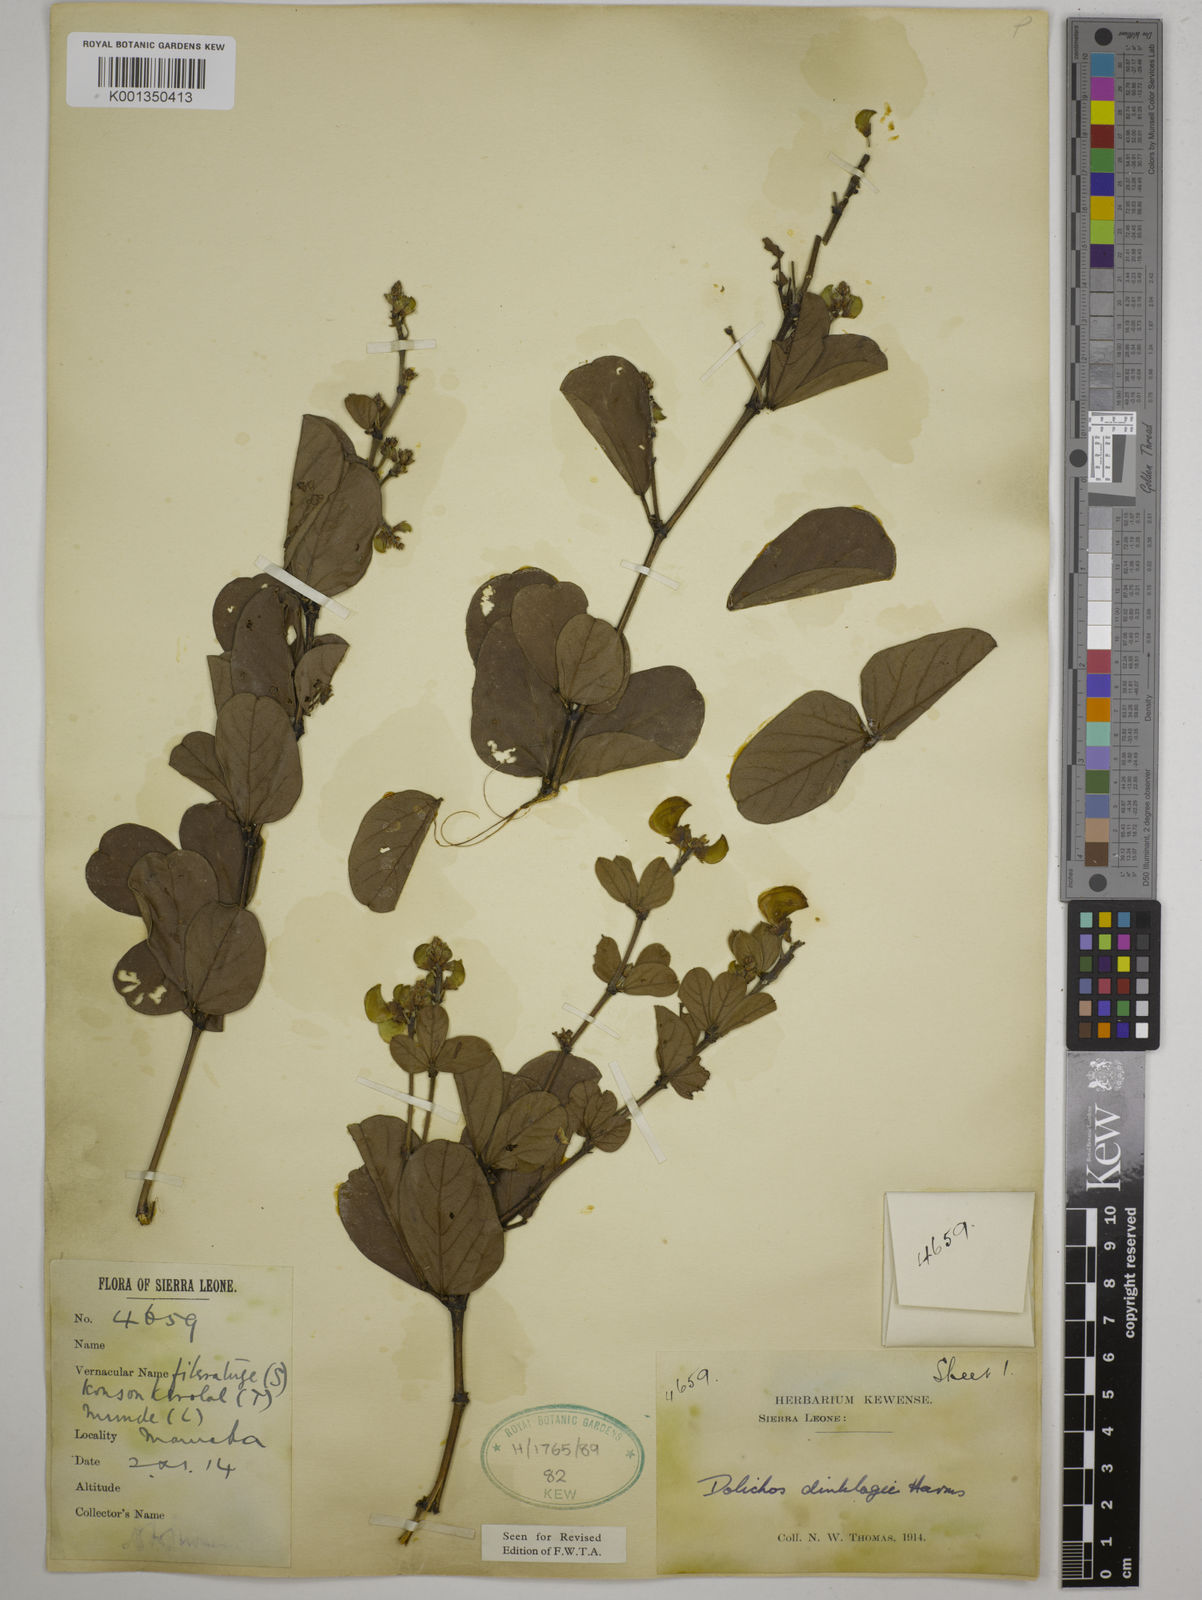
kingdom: Plantae
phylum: Tracheophyta
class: Magnoliopsida
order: Fabales
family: Fabaceae
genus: Dolichos
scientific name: Dolichos dinklagei
